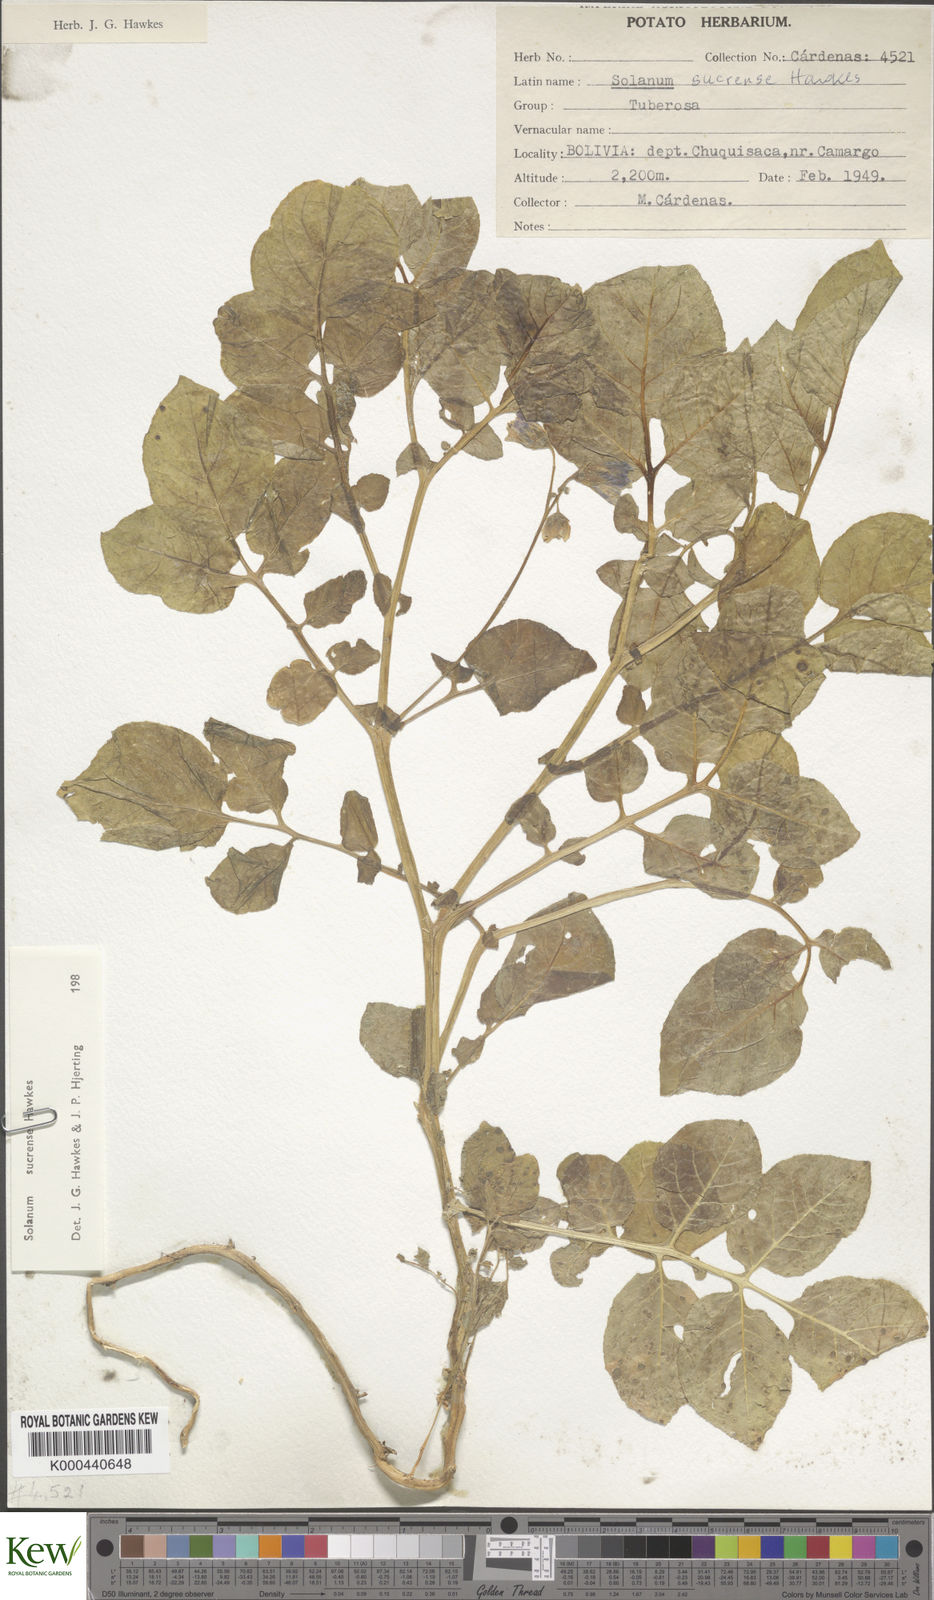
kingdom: Plantae
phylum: Tracheophyta
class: Magnoliopsida
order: Solanales
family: Solanaceae
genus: Solanum
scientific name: Solanum brevicaule
